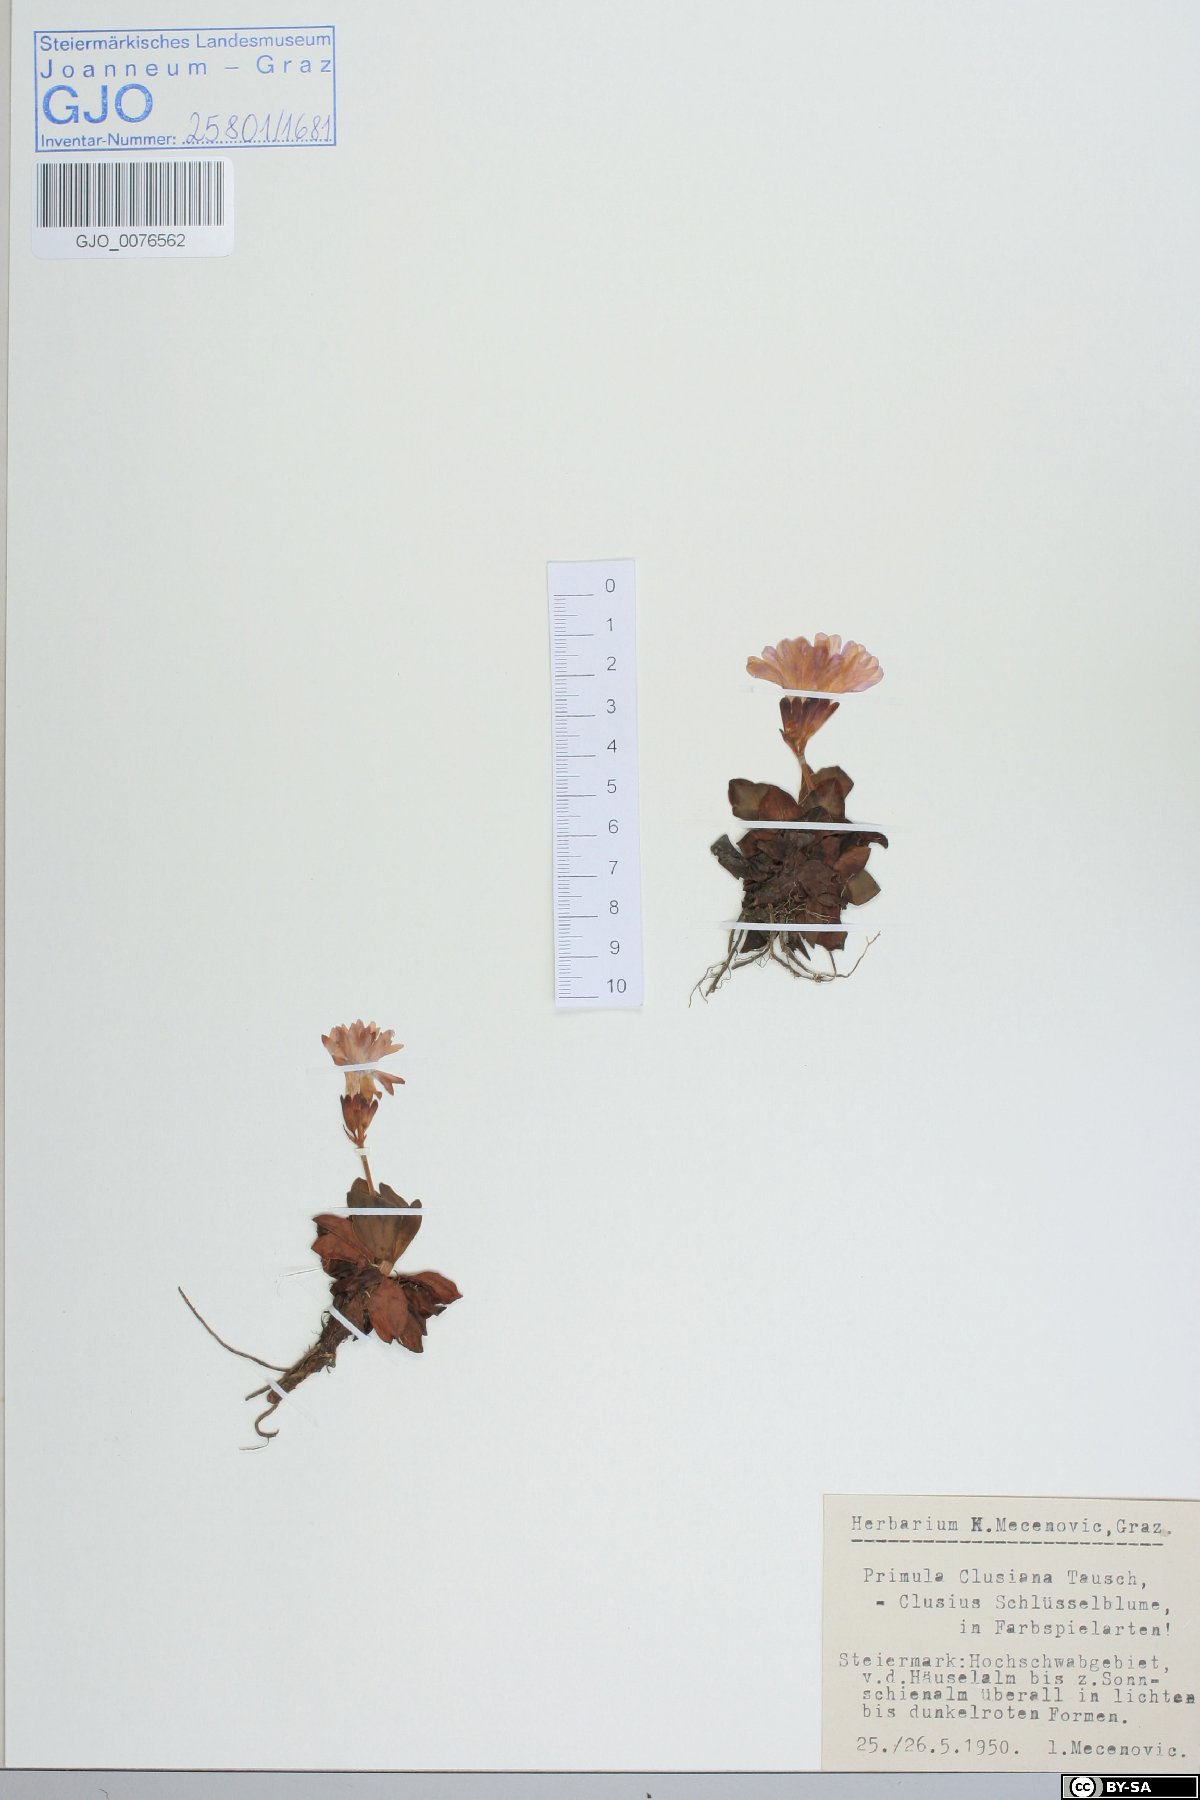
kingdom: Plantae
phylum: Tracheophyta
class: Magnoliopsida
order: Ericales
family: Primulaceae
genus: Primula
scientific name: Primula clusiana
